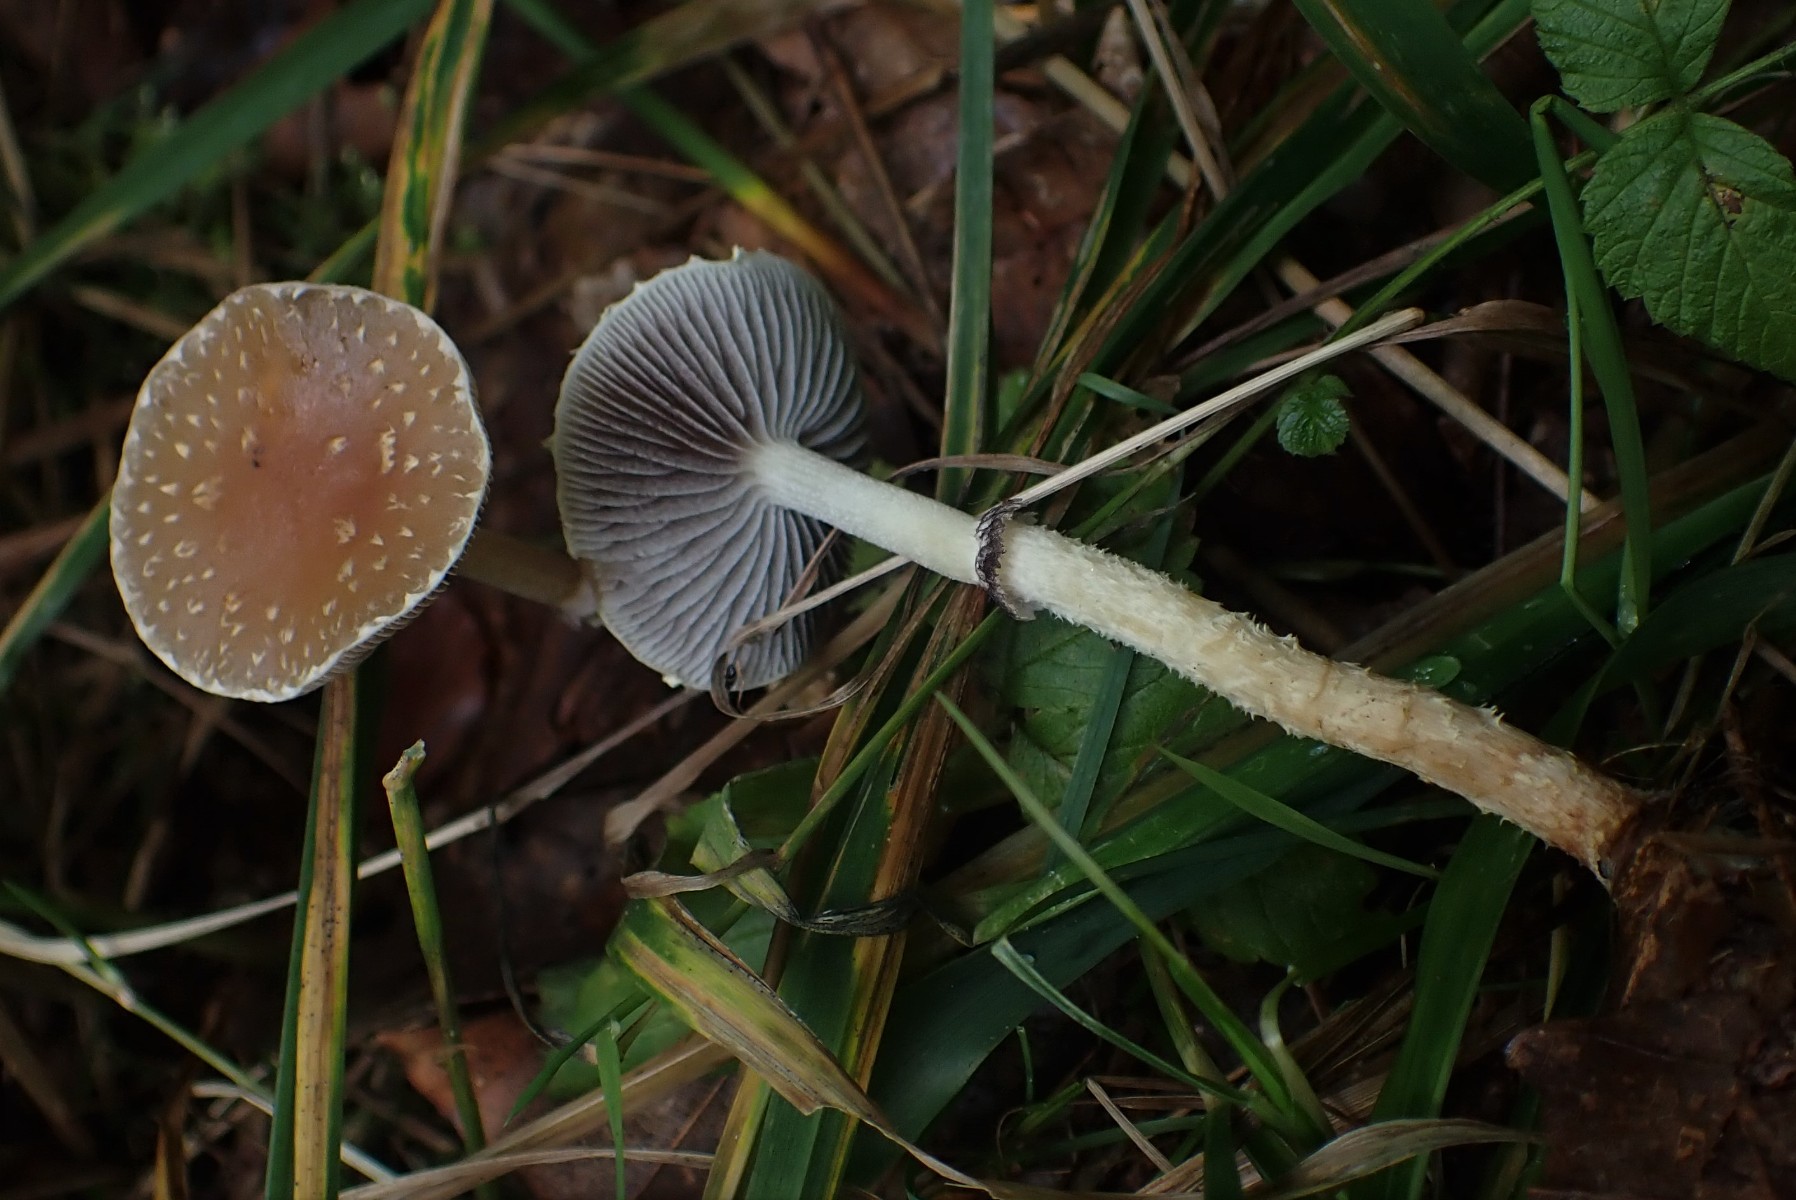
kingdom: Fungi
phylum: Basidiomycota
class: Agaricomycetes
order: Agaricales
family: Strophariaceae
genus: Leratiomyces
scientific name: Leratiomyces squamosus
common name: skællet bredblad
